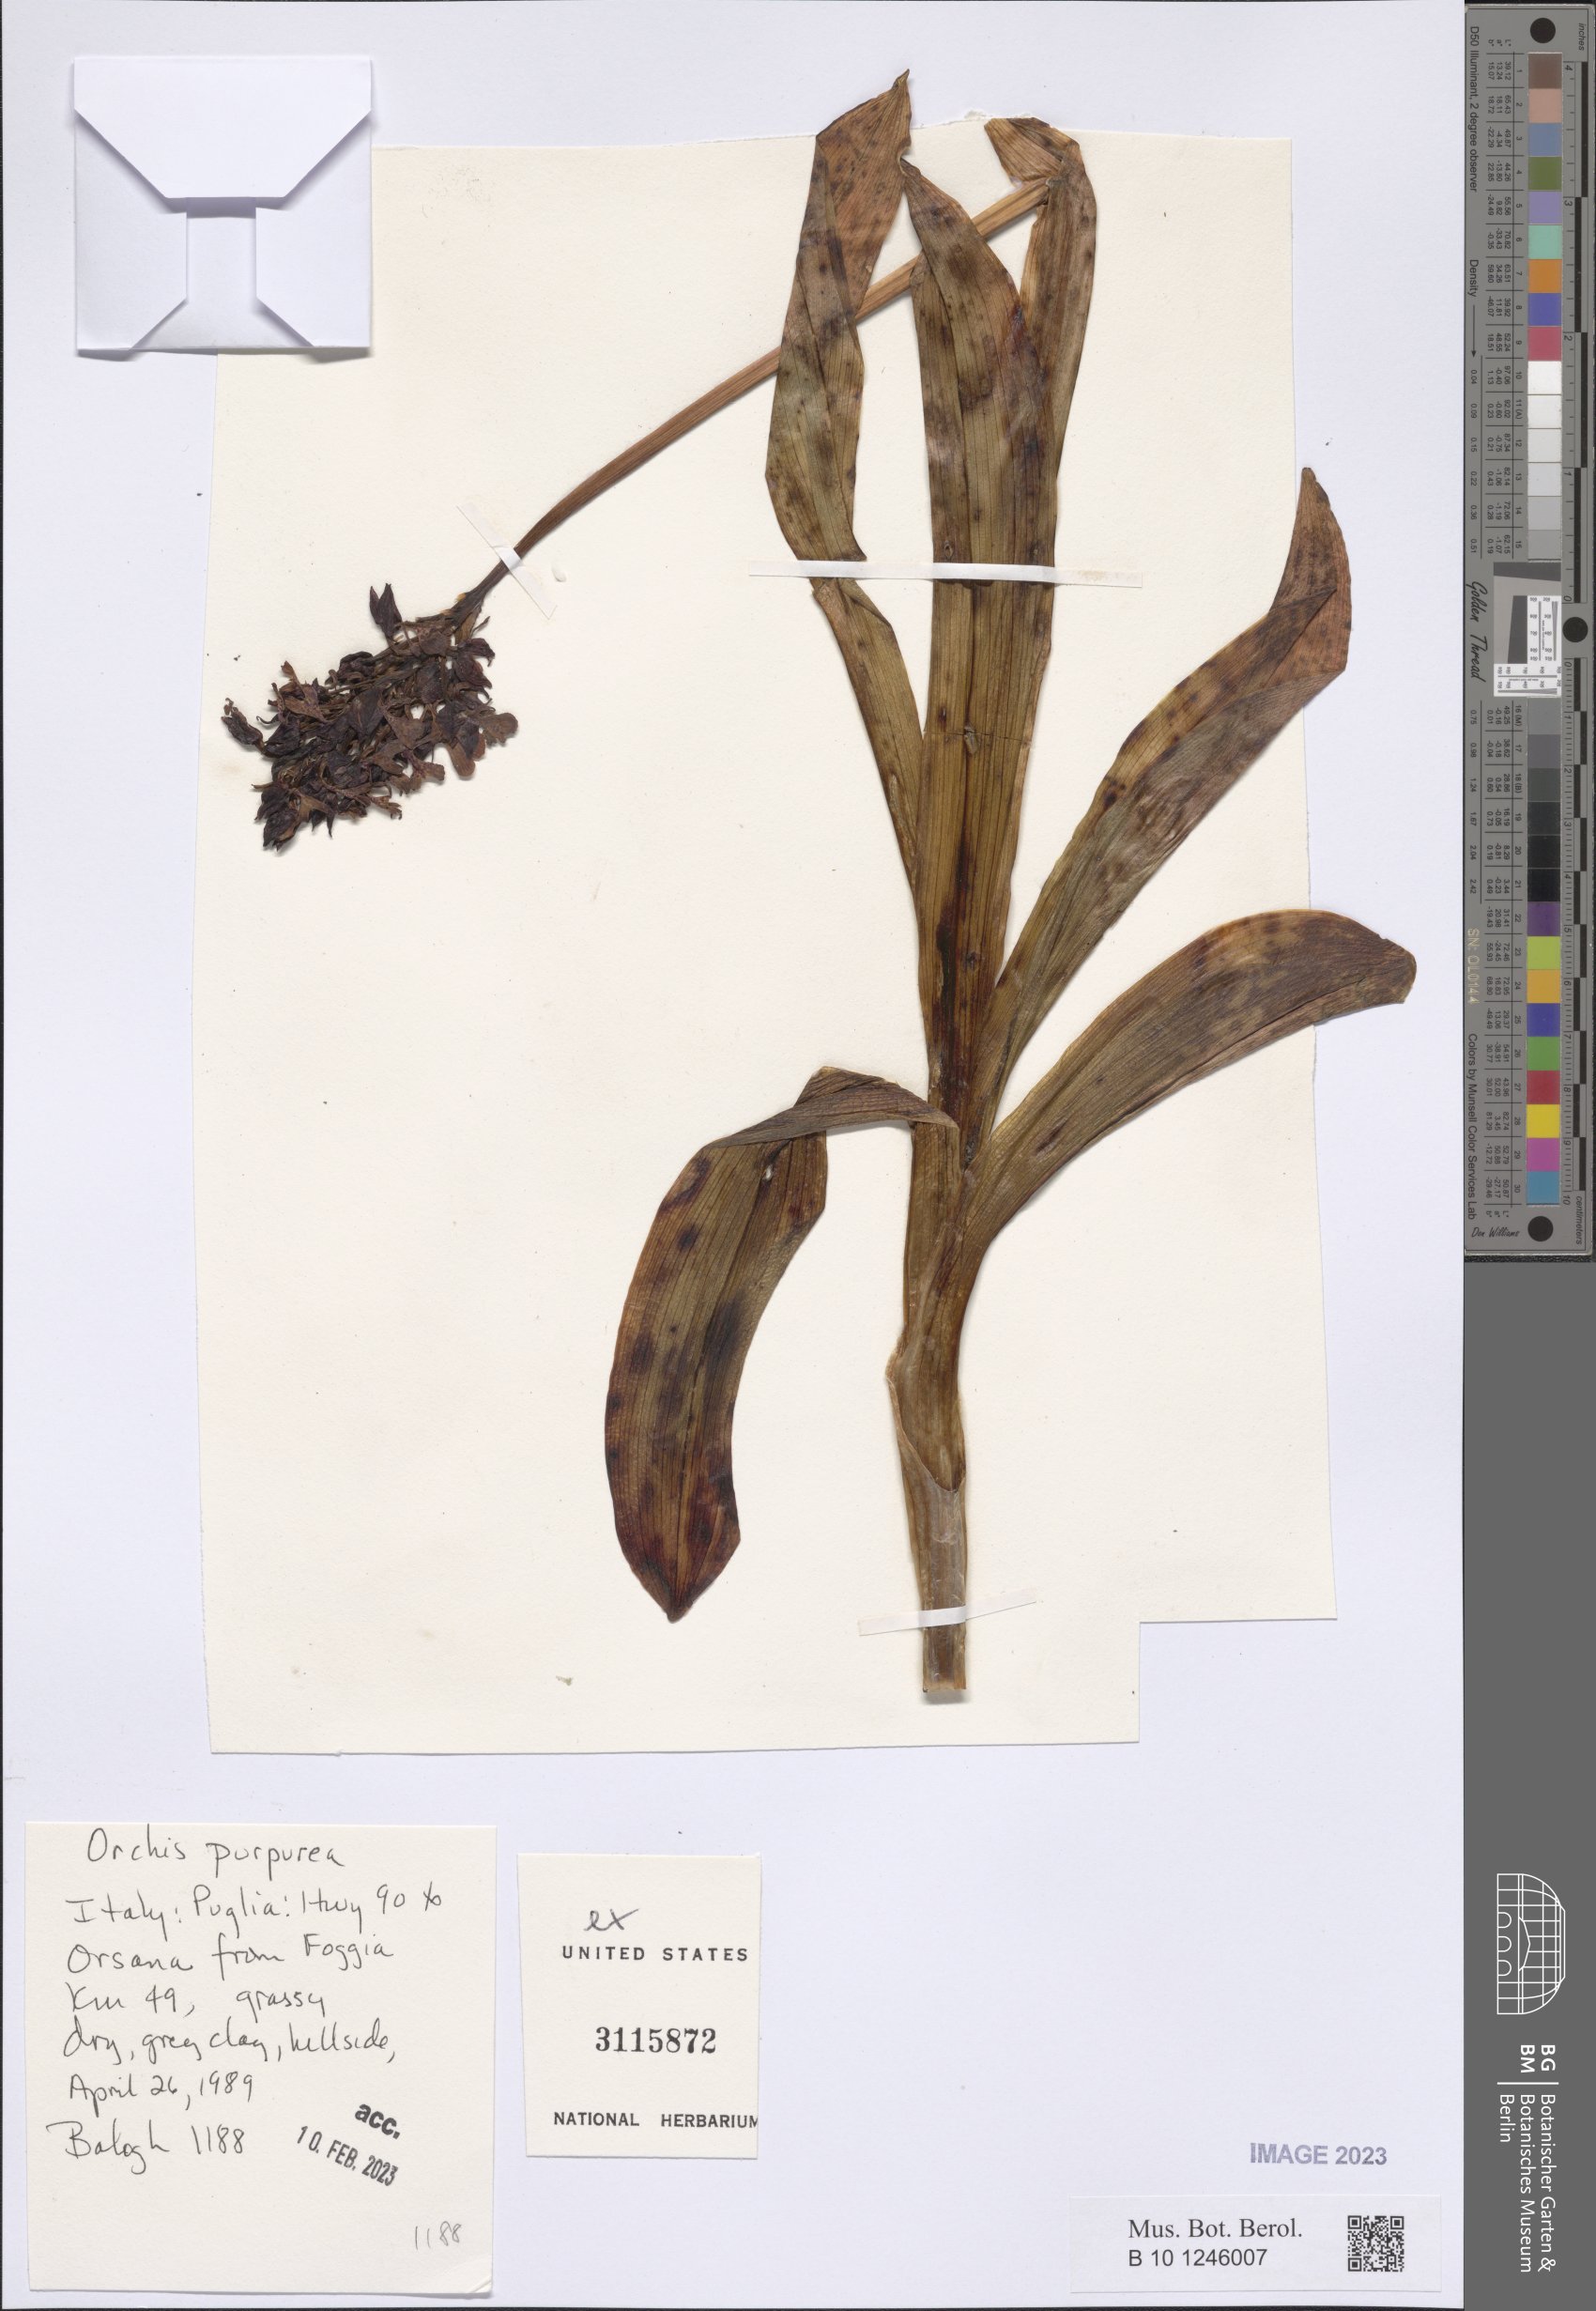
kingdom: Plantae
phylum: Tracheophyta
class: Liliopsida
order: Asparagales
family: Orchidaceae
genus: Orchis
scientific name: Orchis purpurea
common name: Lady orchid
